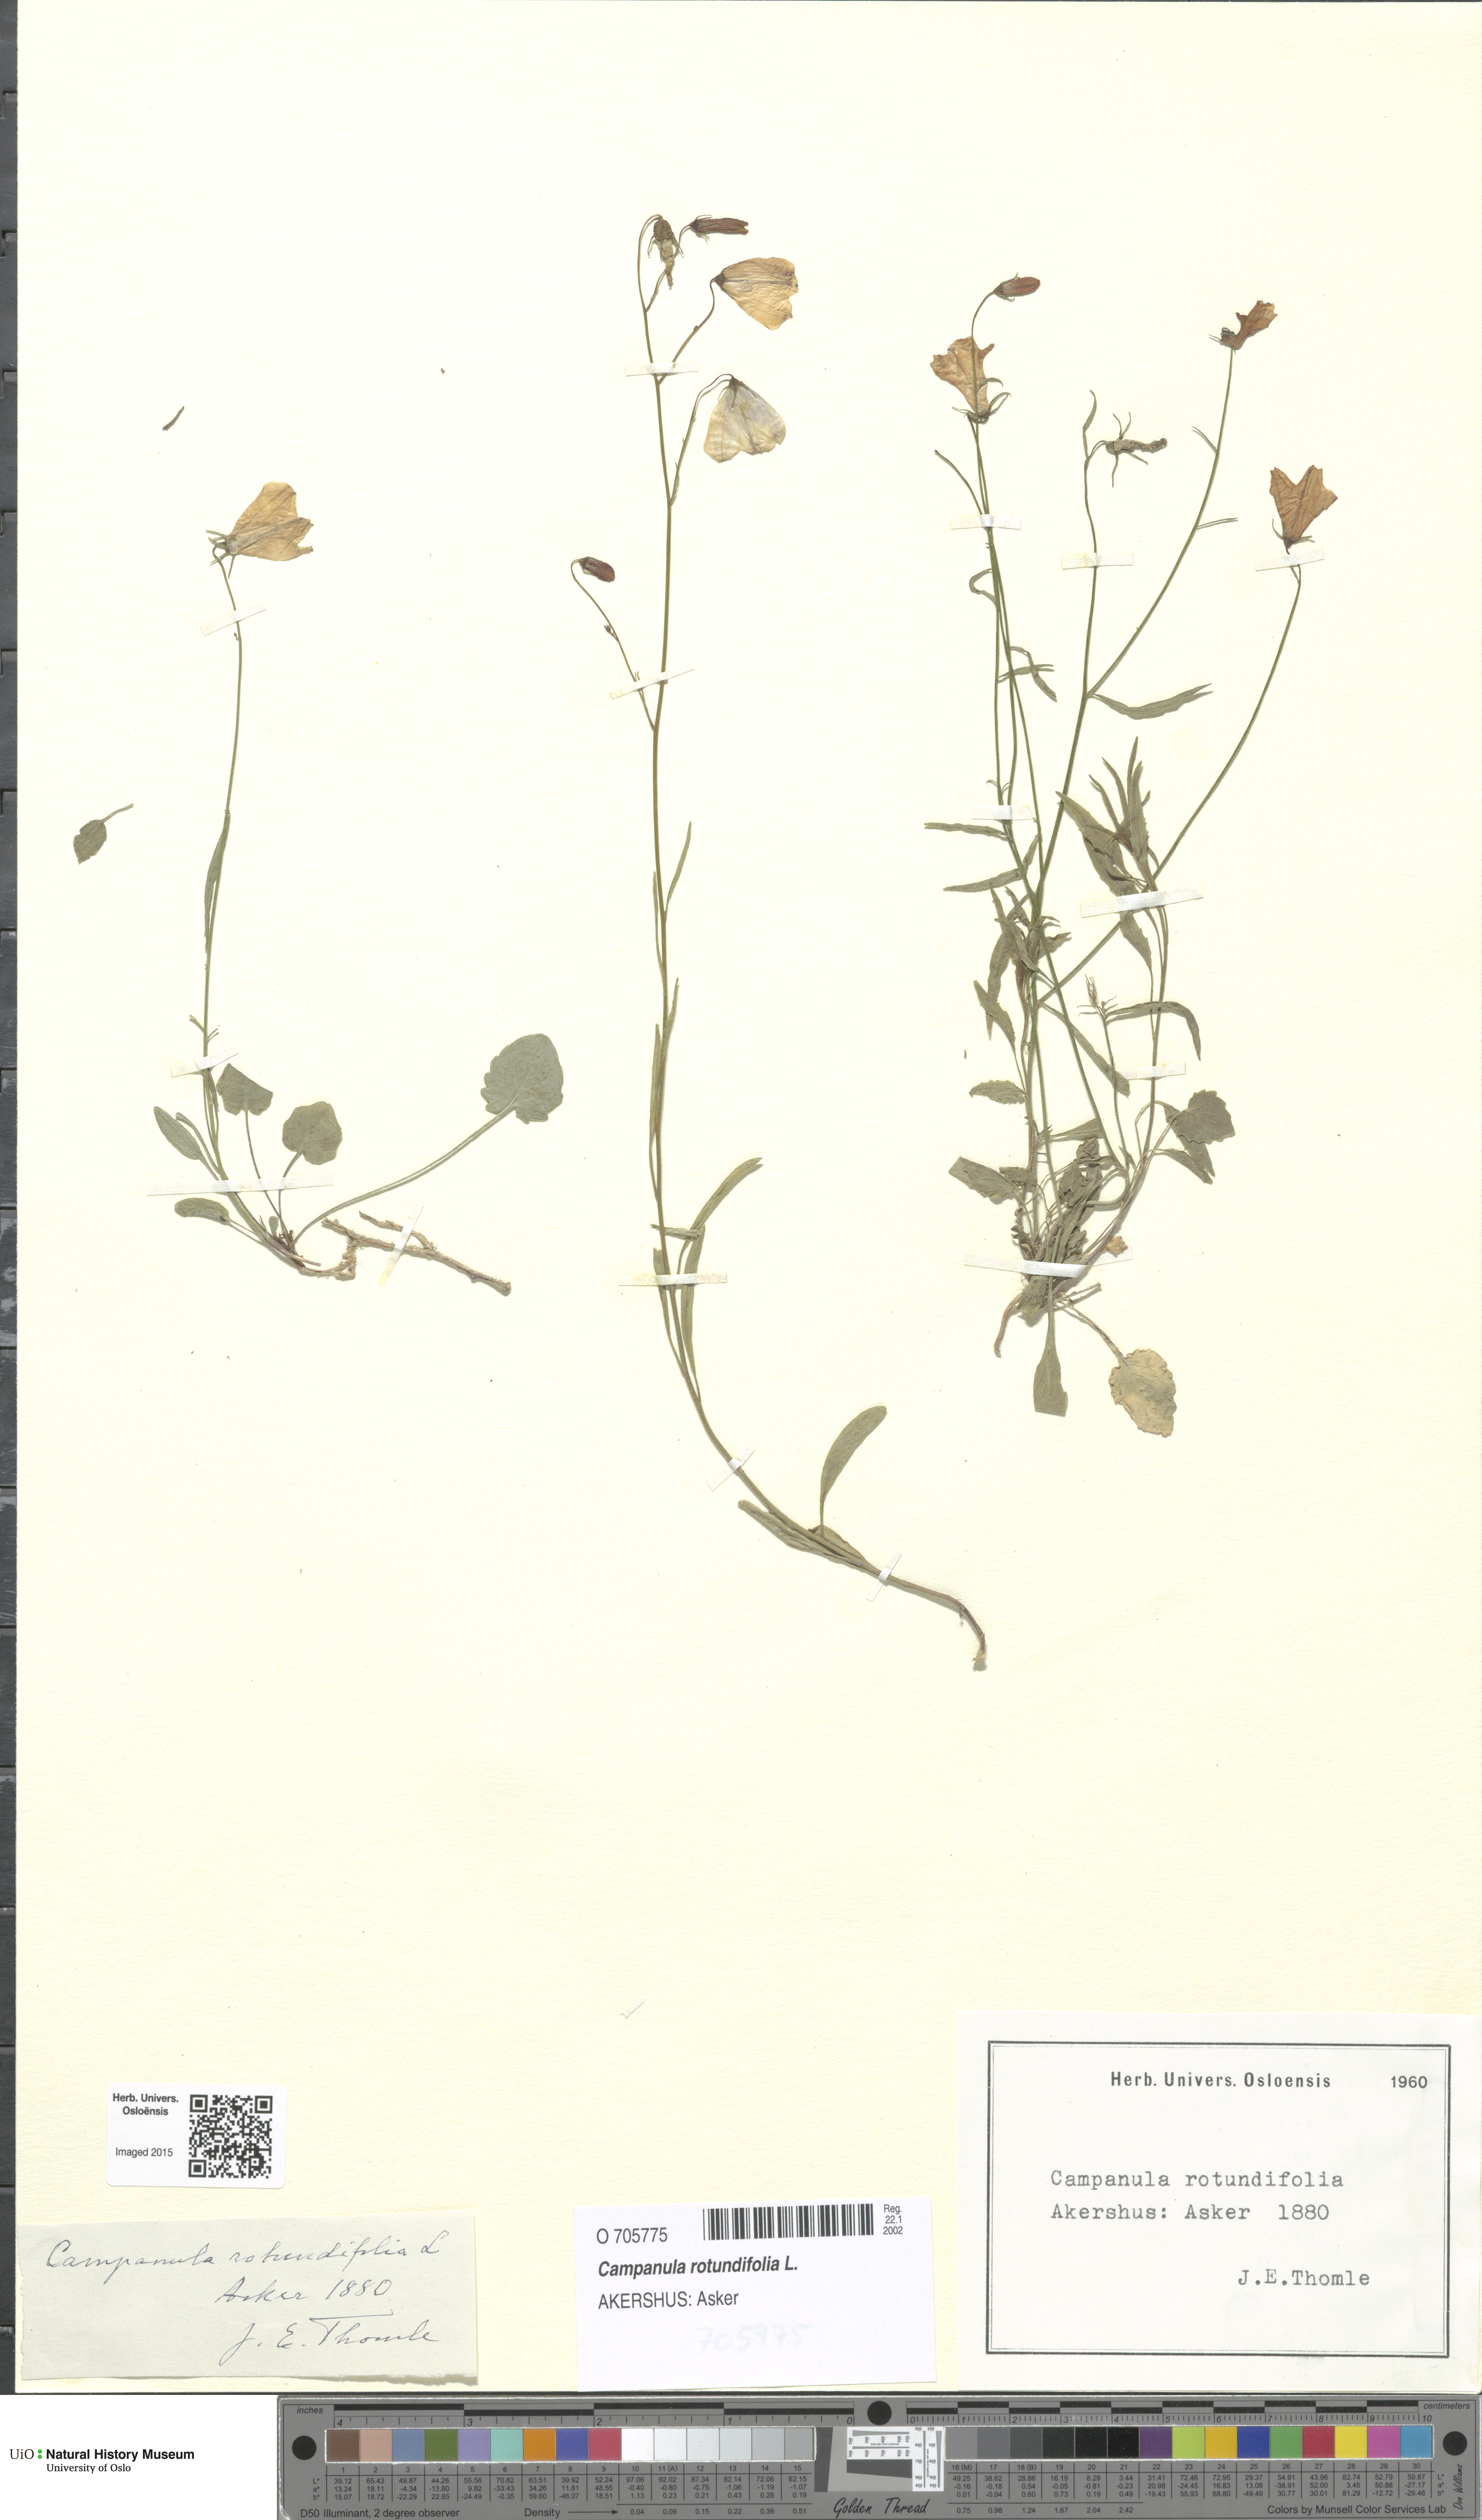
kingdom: Plantae
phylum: Tracheophyta
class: Magnoliopsida
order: Asterales
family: Campanulaceae
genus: Campanula
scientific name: Campanula rotundifolia
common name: Harebell
